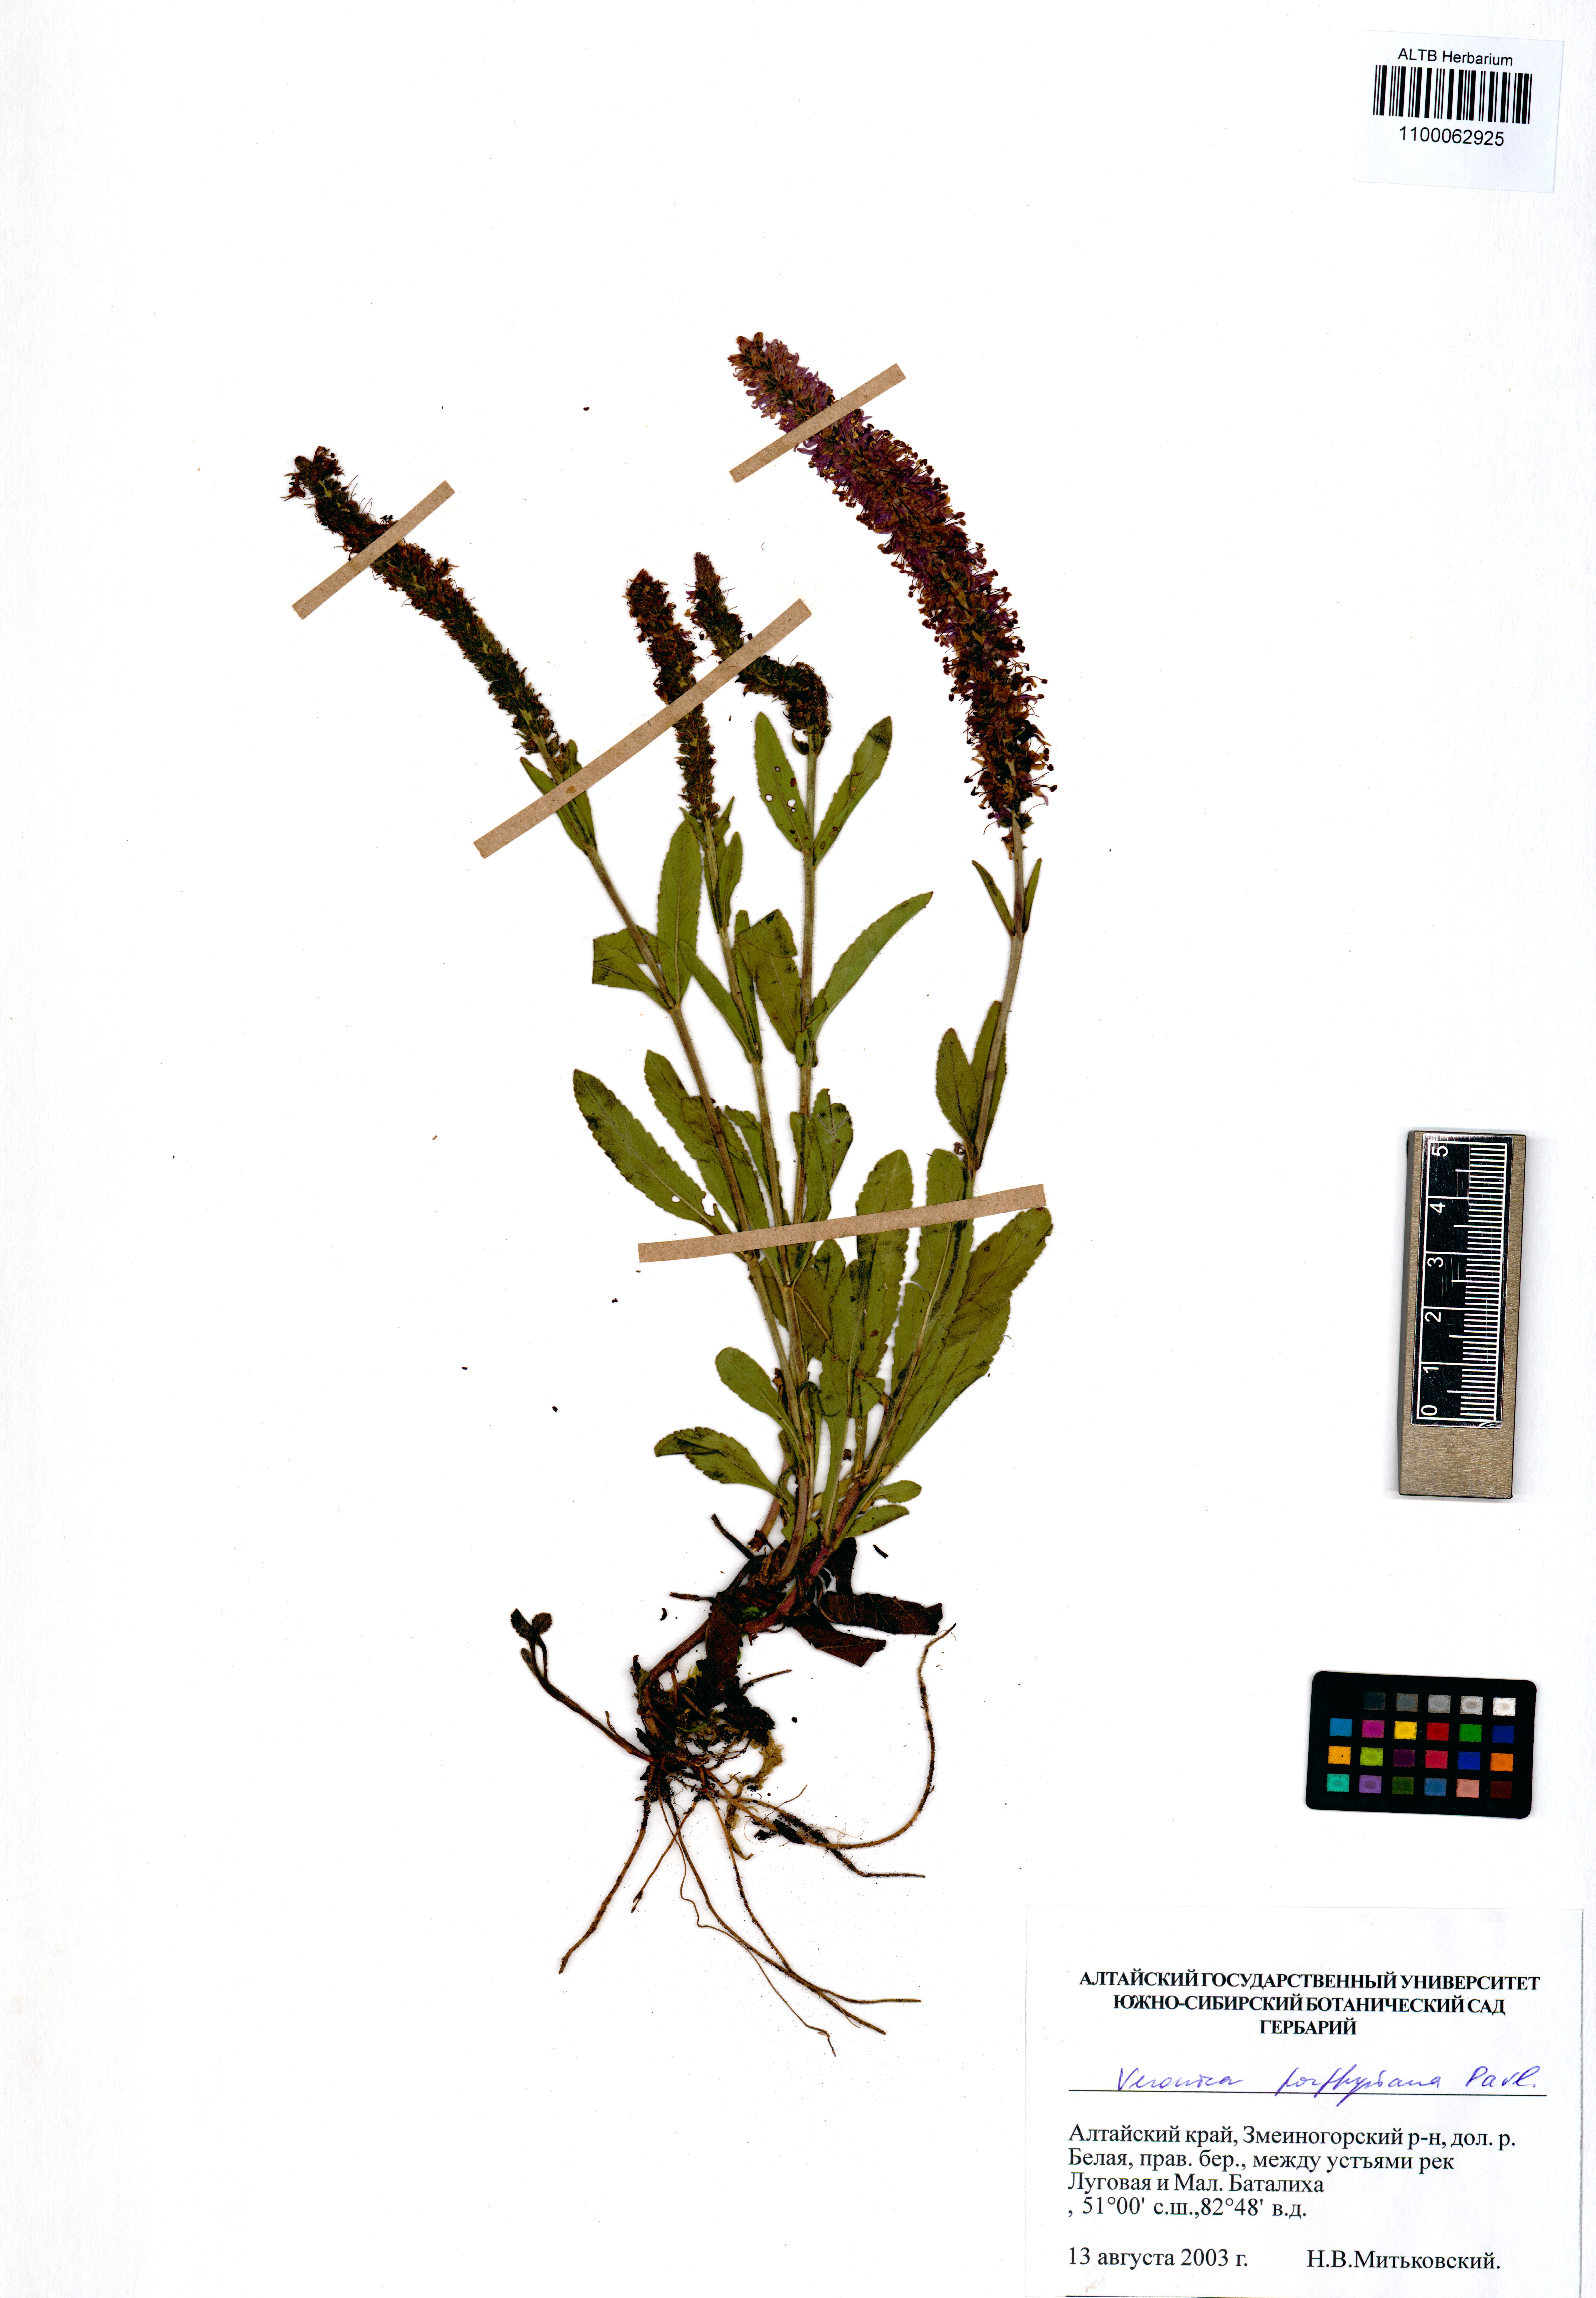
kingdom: Plantae
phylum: Tracheophyta
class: Magnoliopsida
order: Lamiales
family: Plantaginaceae
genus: Veronica
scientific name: Veronica porphyriana
